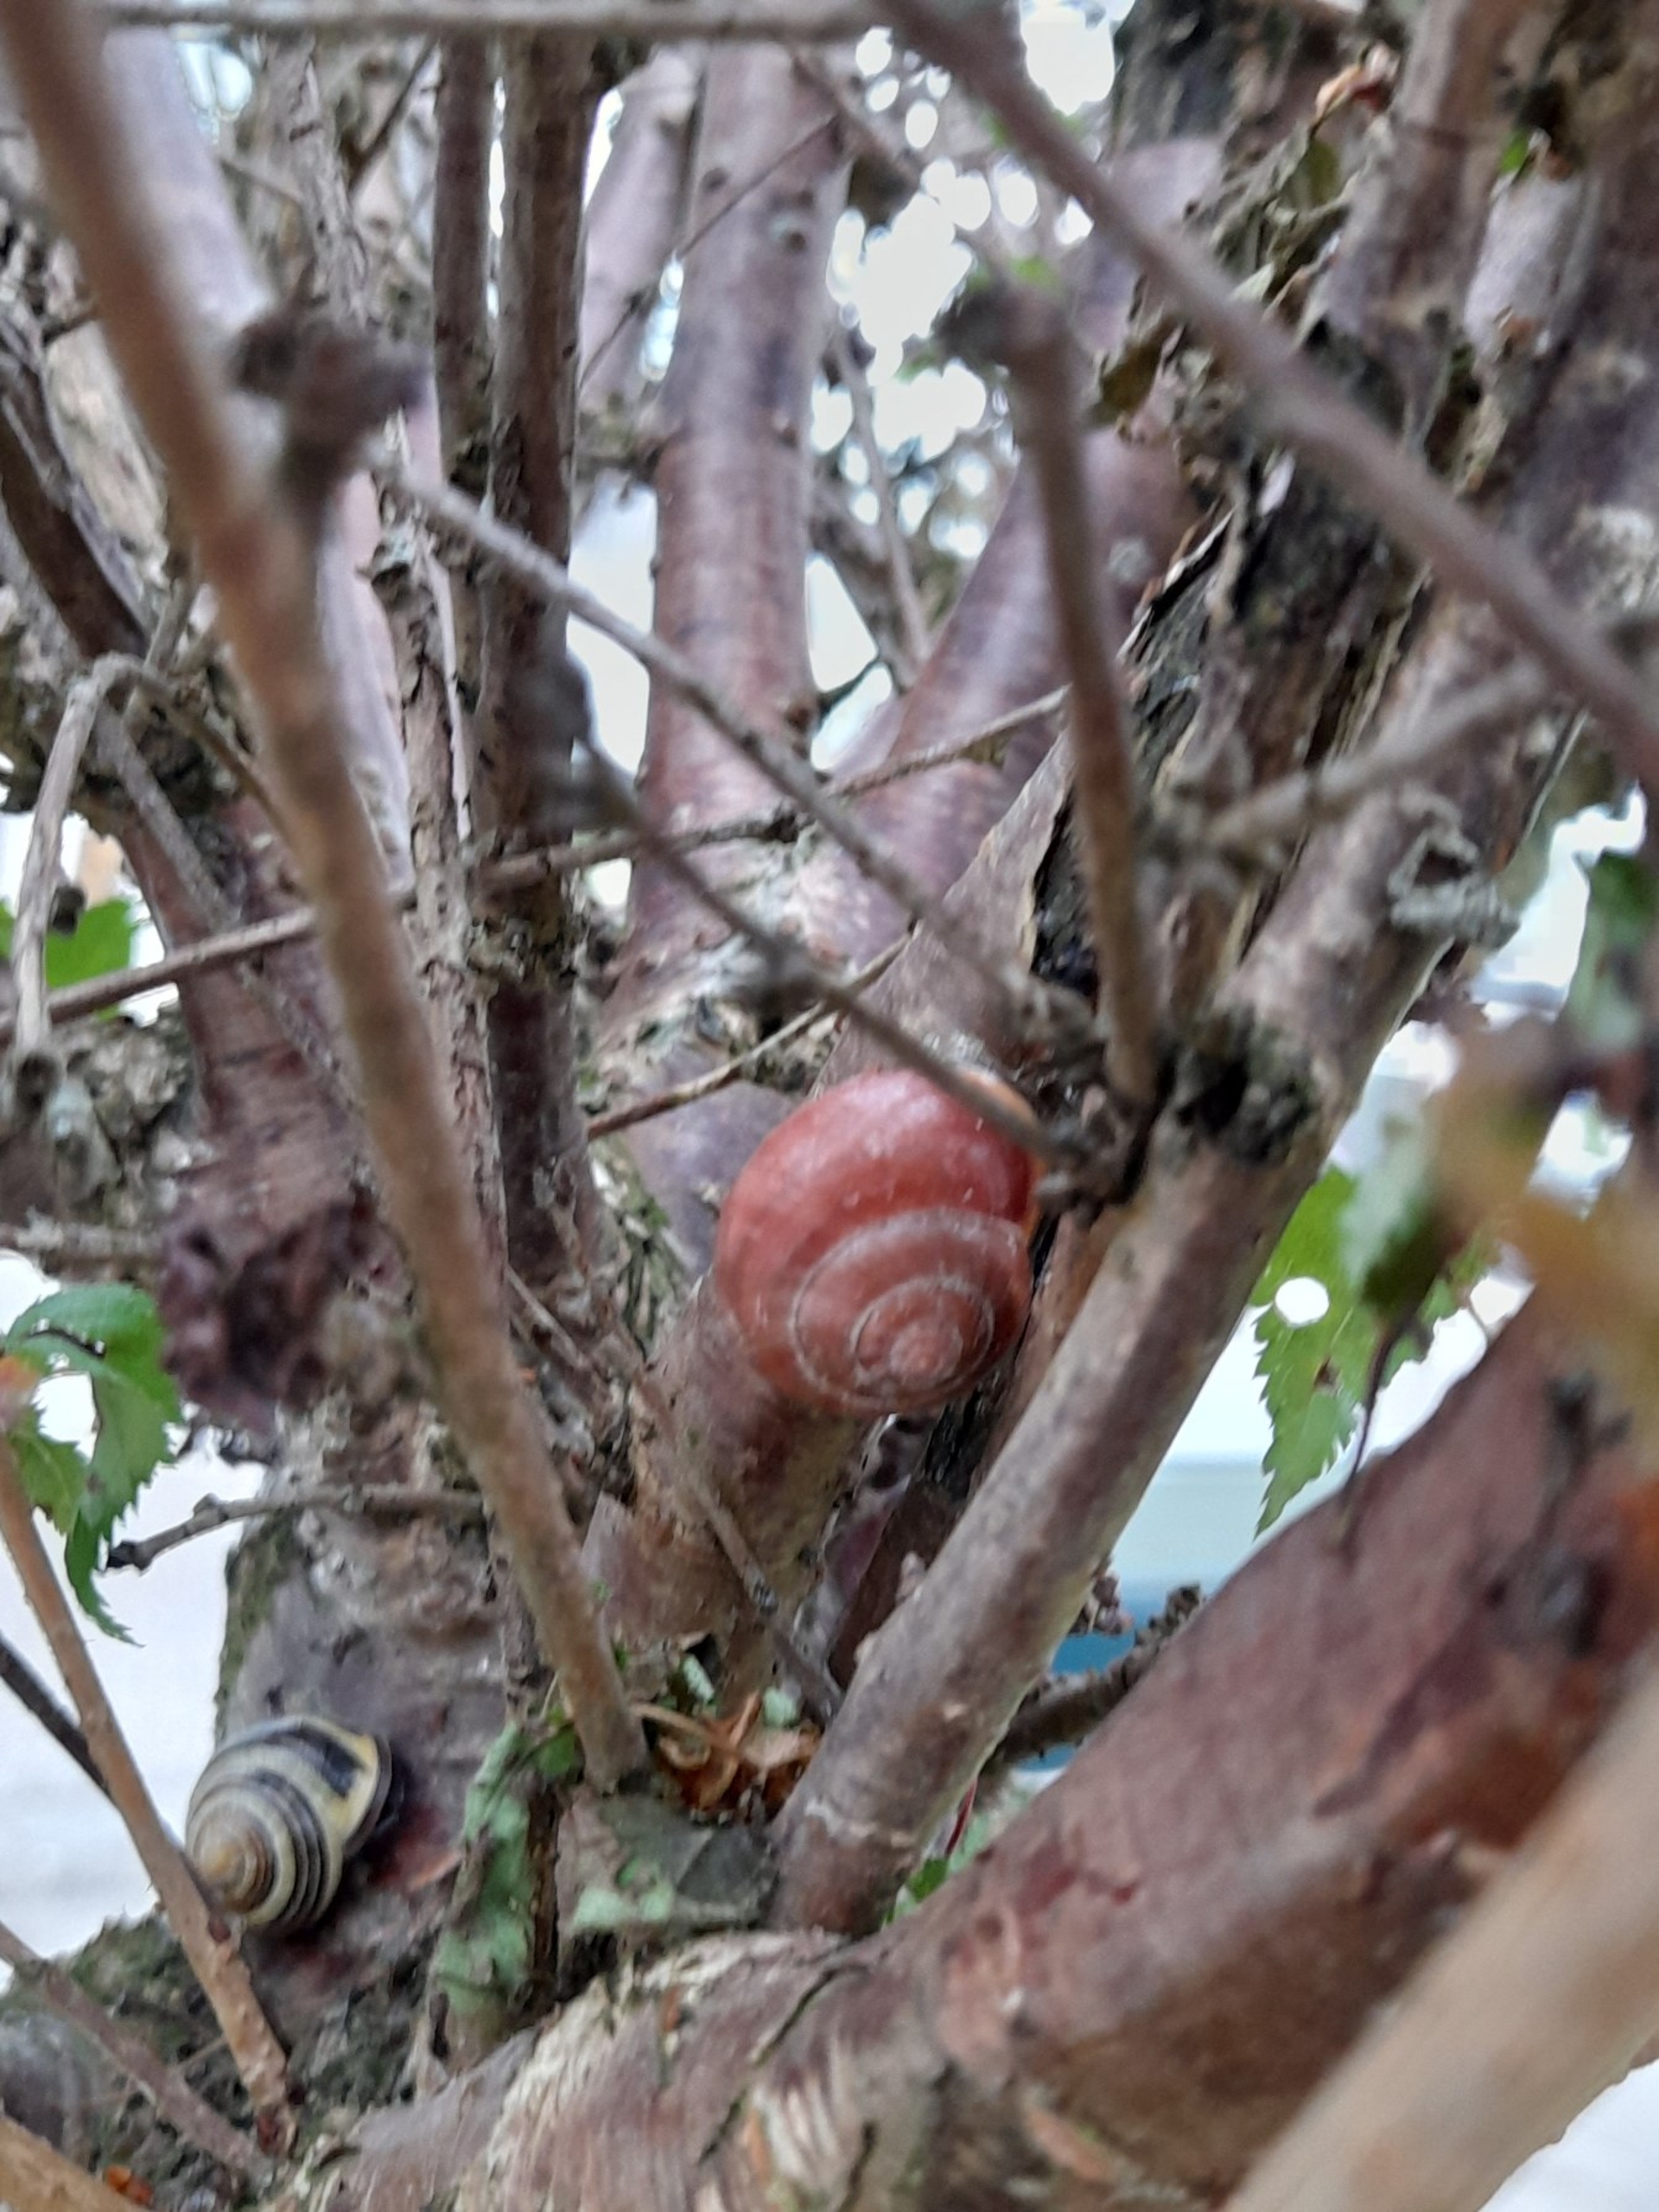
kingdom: Animalia
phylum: Mollusca
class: Gastropoda
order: Stylommatophora
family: Helicidae
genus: Cepaea
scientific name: Cepaea nemoralis
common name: Lundsnegl
